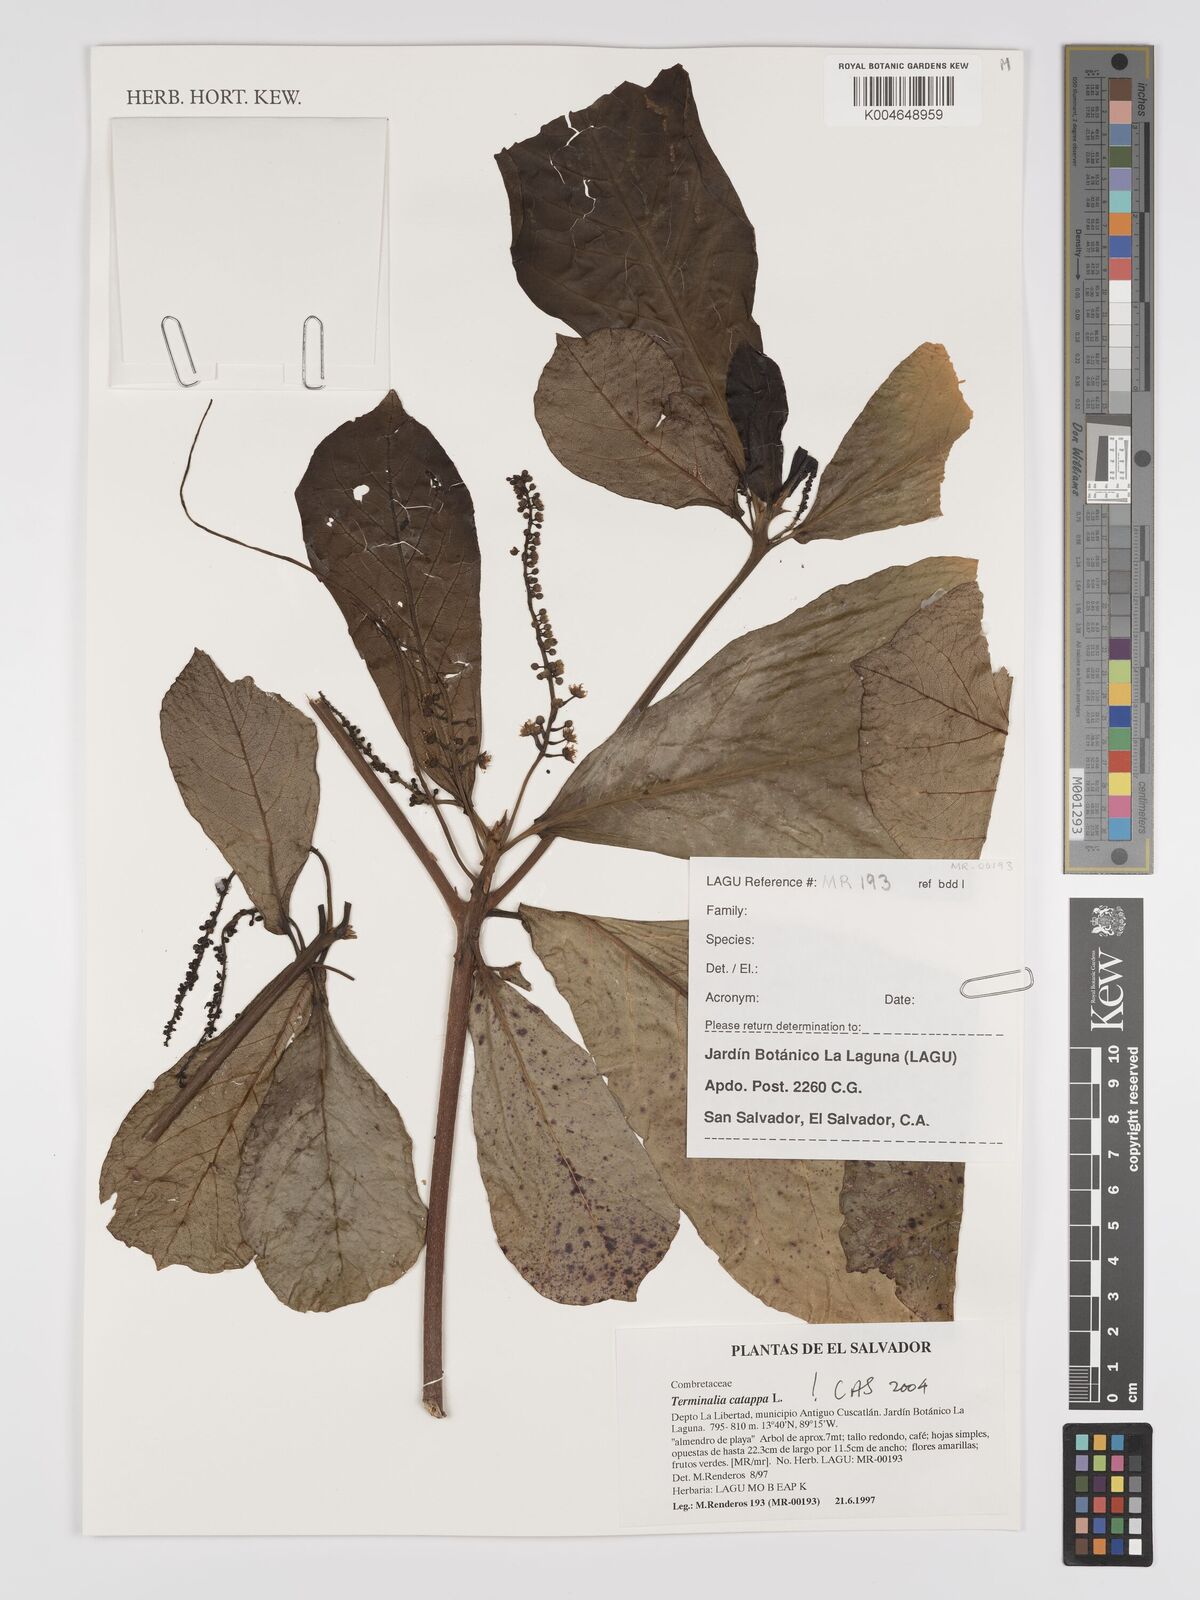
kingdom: Plantae
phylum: Tracheophyta
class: Magnoliopsida
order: Myrtales
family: Combretaceae
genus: Terminalia
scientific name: Terminalia catappa
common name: Tropical almond
